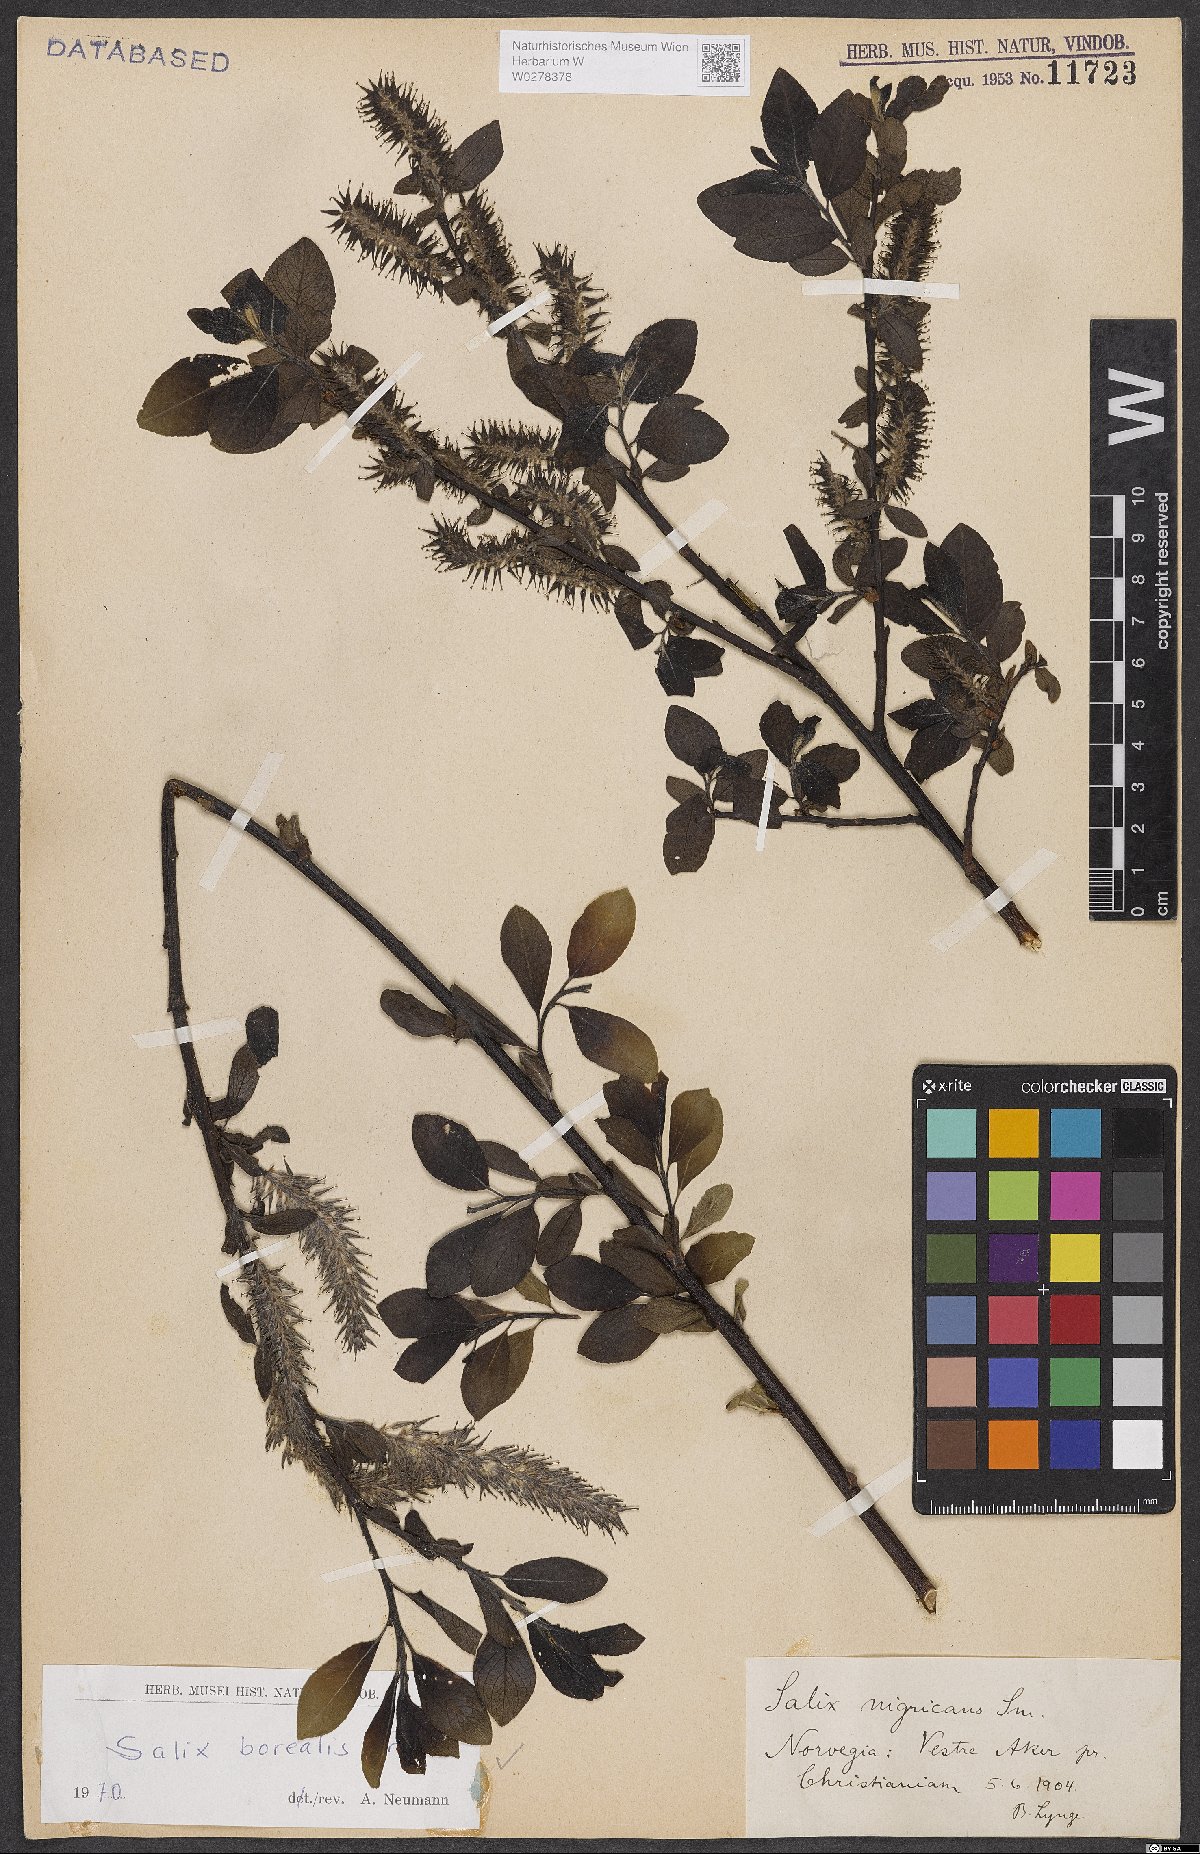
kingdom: Plantae
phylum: Tracheophyta
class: Magnoliopsida
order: Malpighiales
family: Salicaceae
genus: Salix
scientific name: Salix myrsinifolia
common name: Dark-leaved willow
